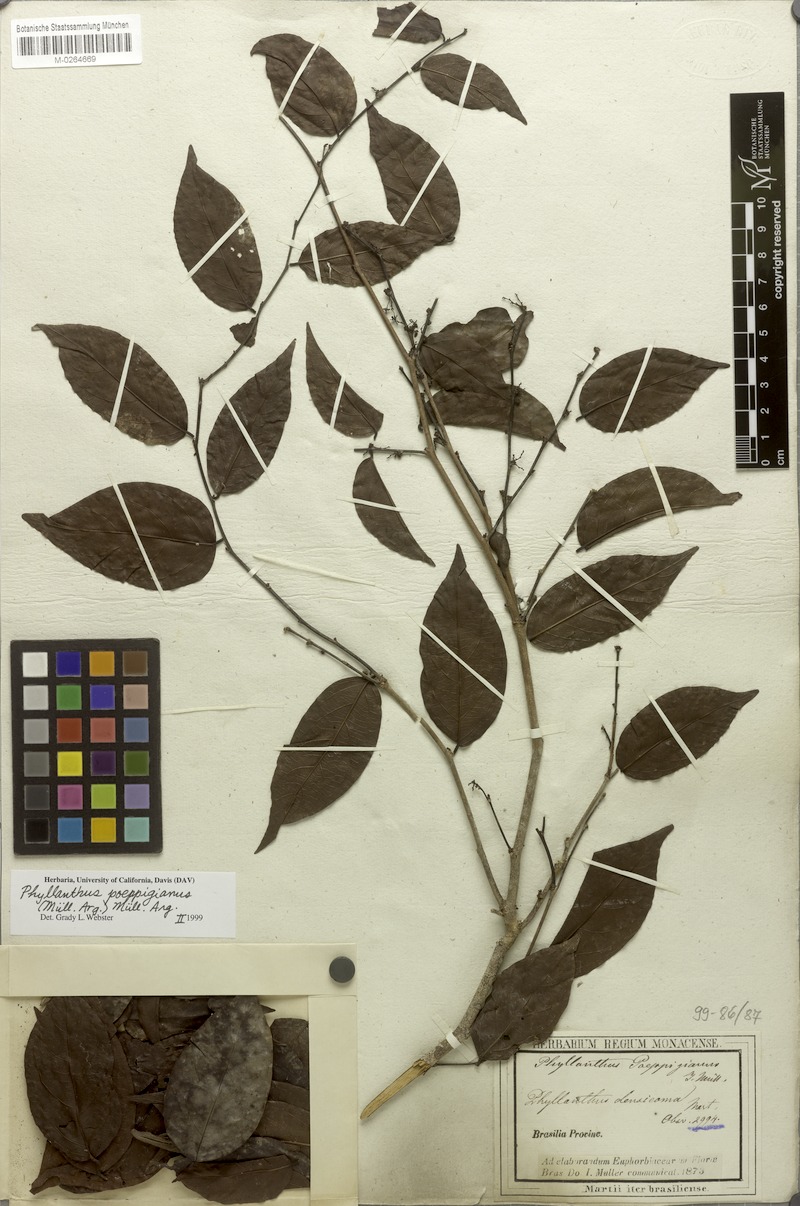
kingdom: Plantae
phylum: Tracheophyta
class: Magnoliopsida
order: Malpighiales
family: Phyllanthaceae
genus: Phyllanthus
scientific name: Phyllanthus poeppigianus
